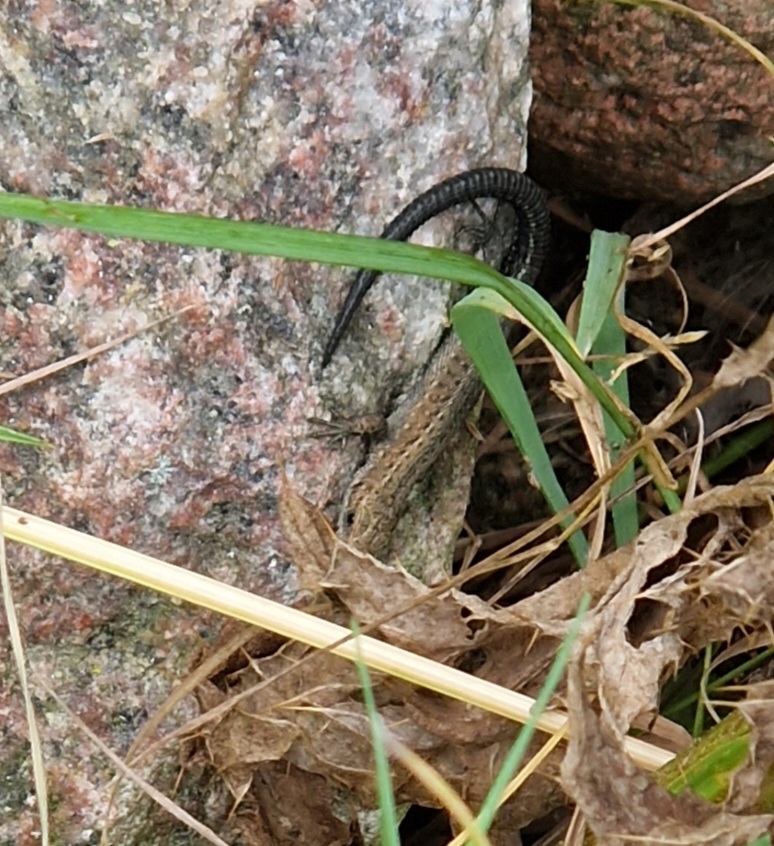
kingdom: Animalia
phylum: Chordata
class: Squamata
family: Lacertidae
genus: Zootoca
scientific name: Zootoca vivipara
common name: Skovfirben
